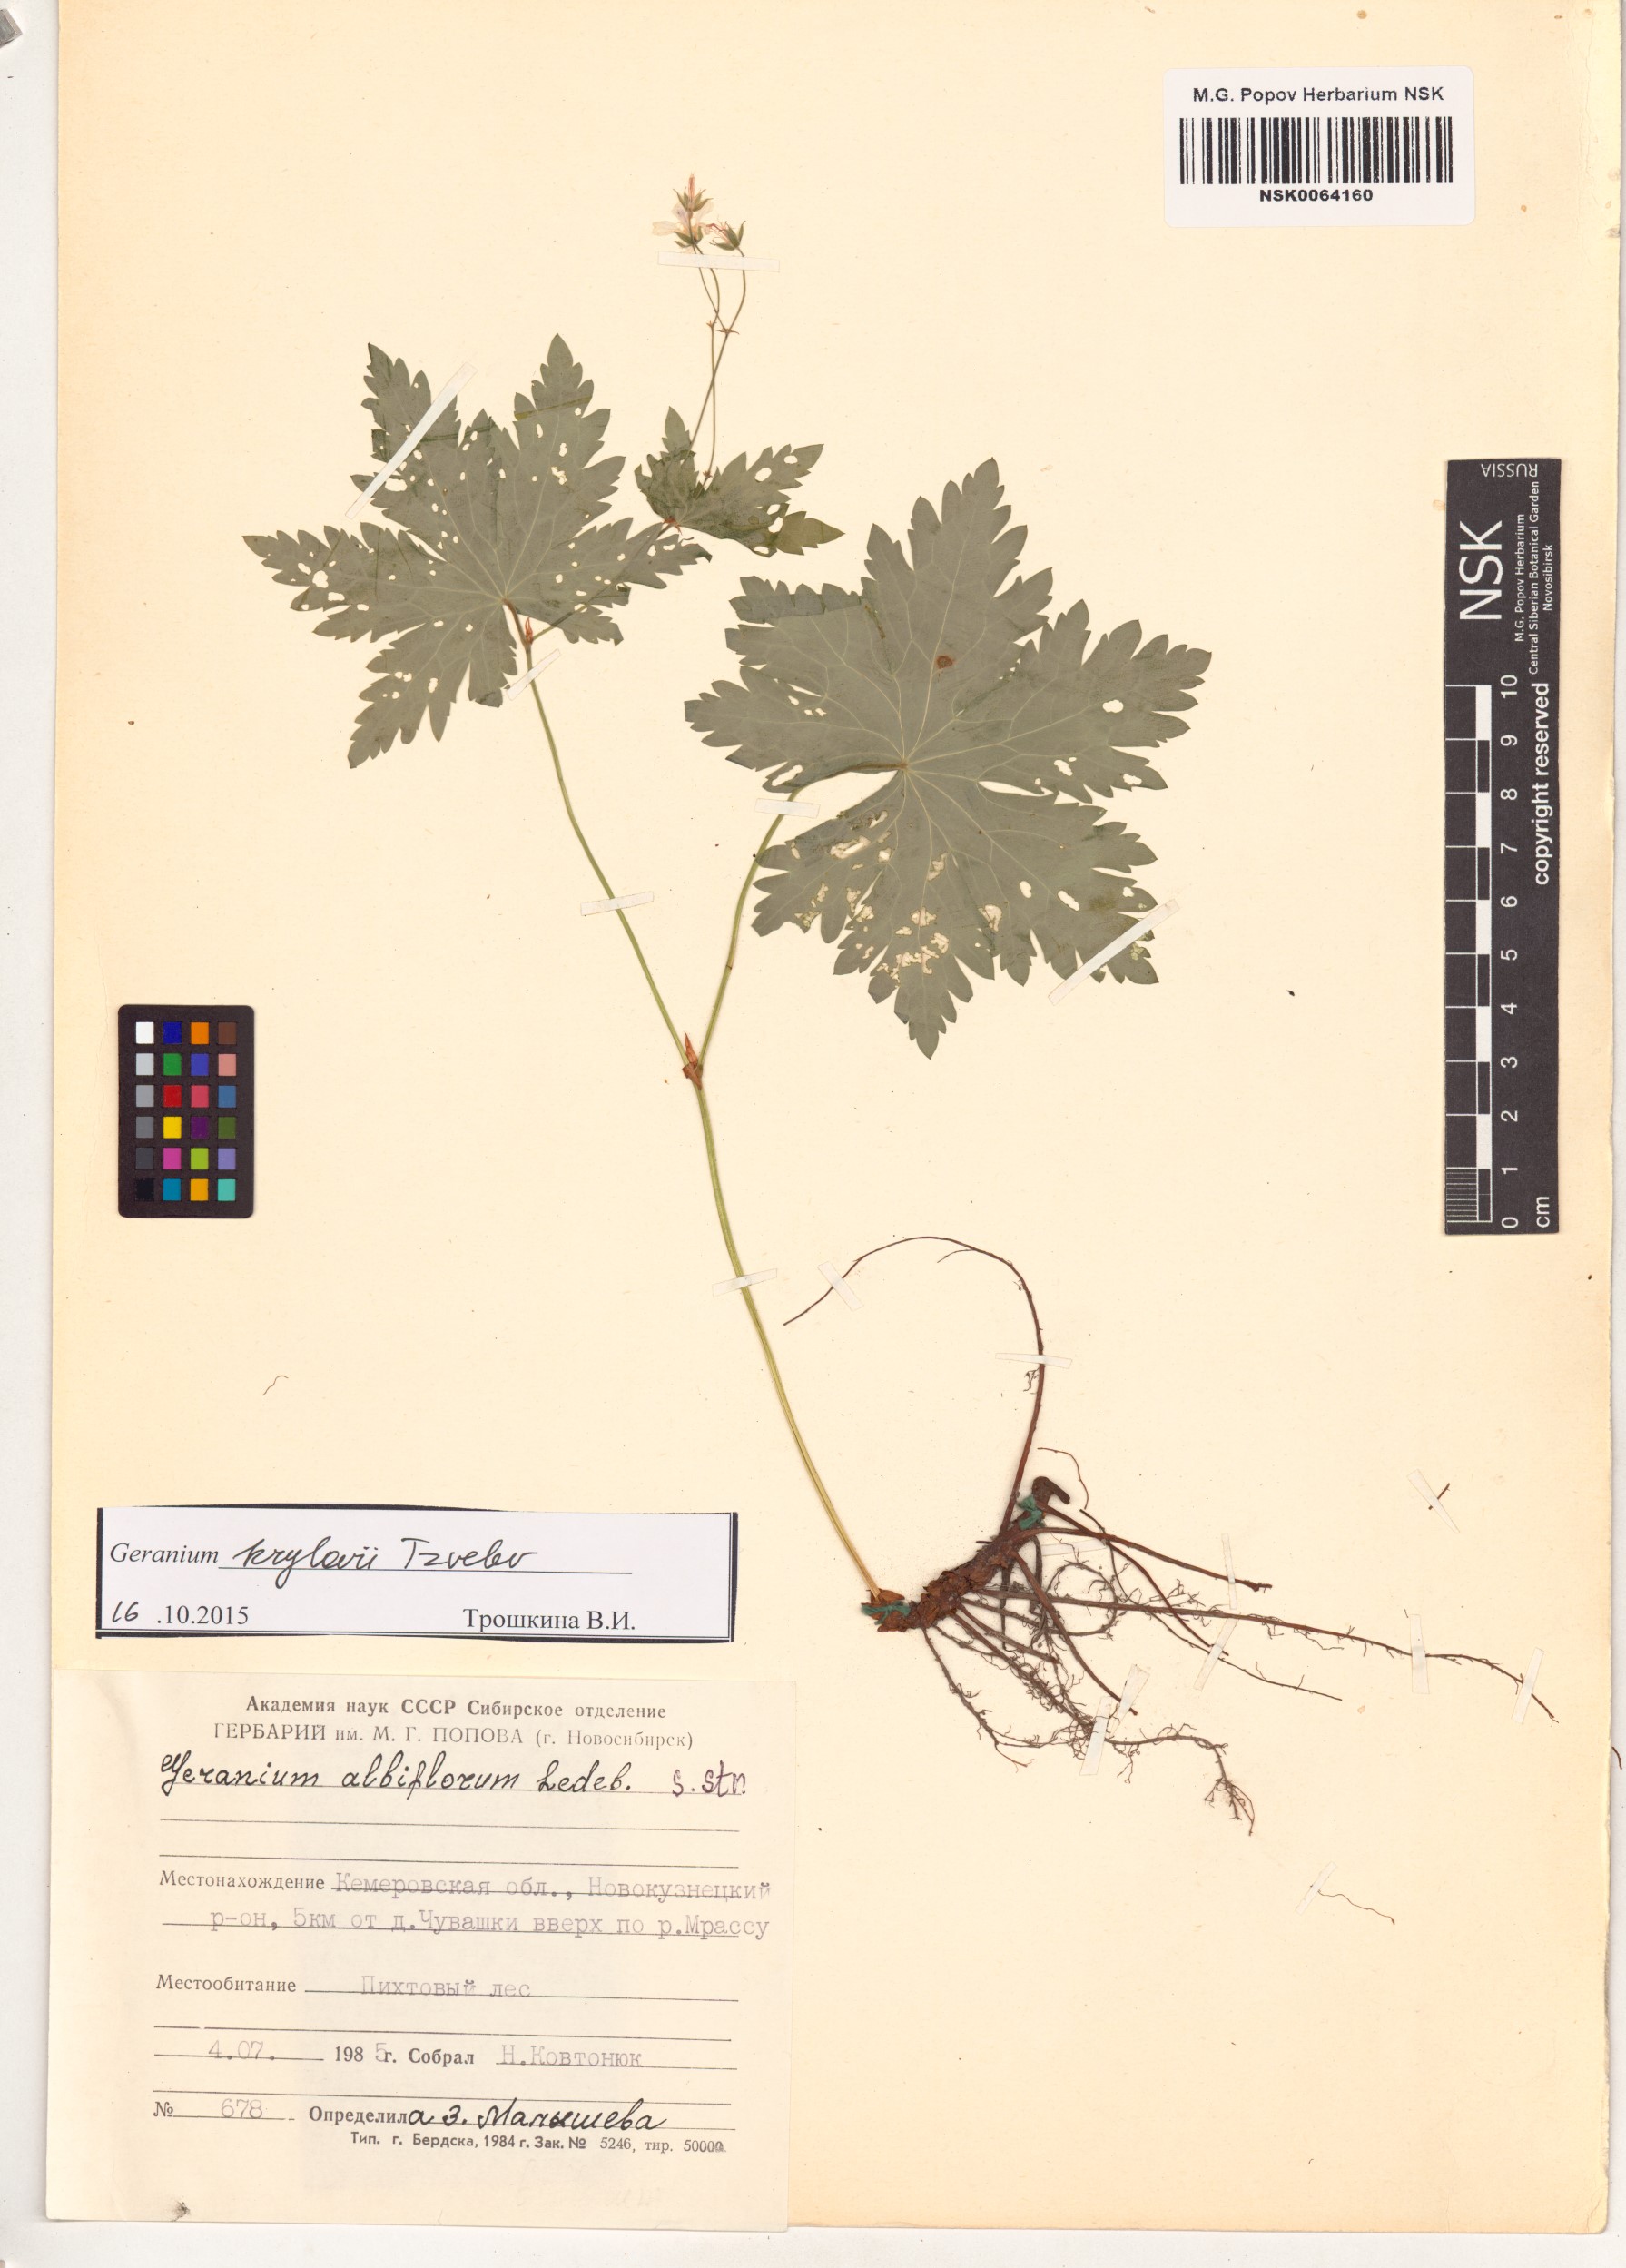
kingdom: Plantae
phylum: Tracheophyta
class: Magnoliopsida
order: Geraniales
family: Geraniaceae
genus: Geranium
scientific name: Geranium sylvaticum
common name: Wood crane's-bill
